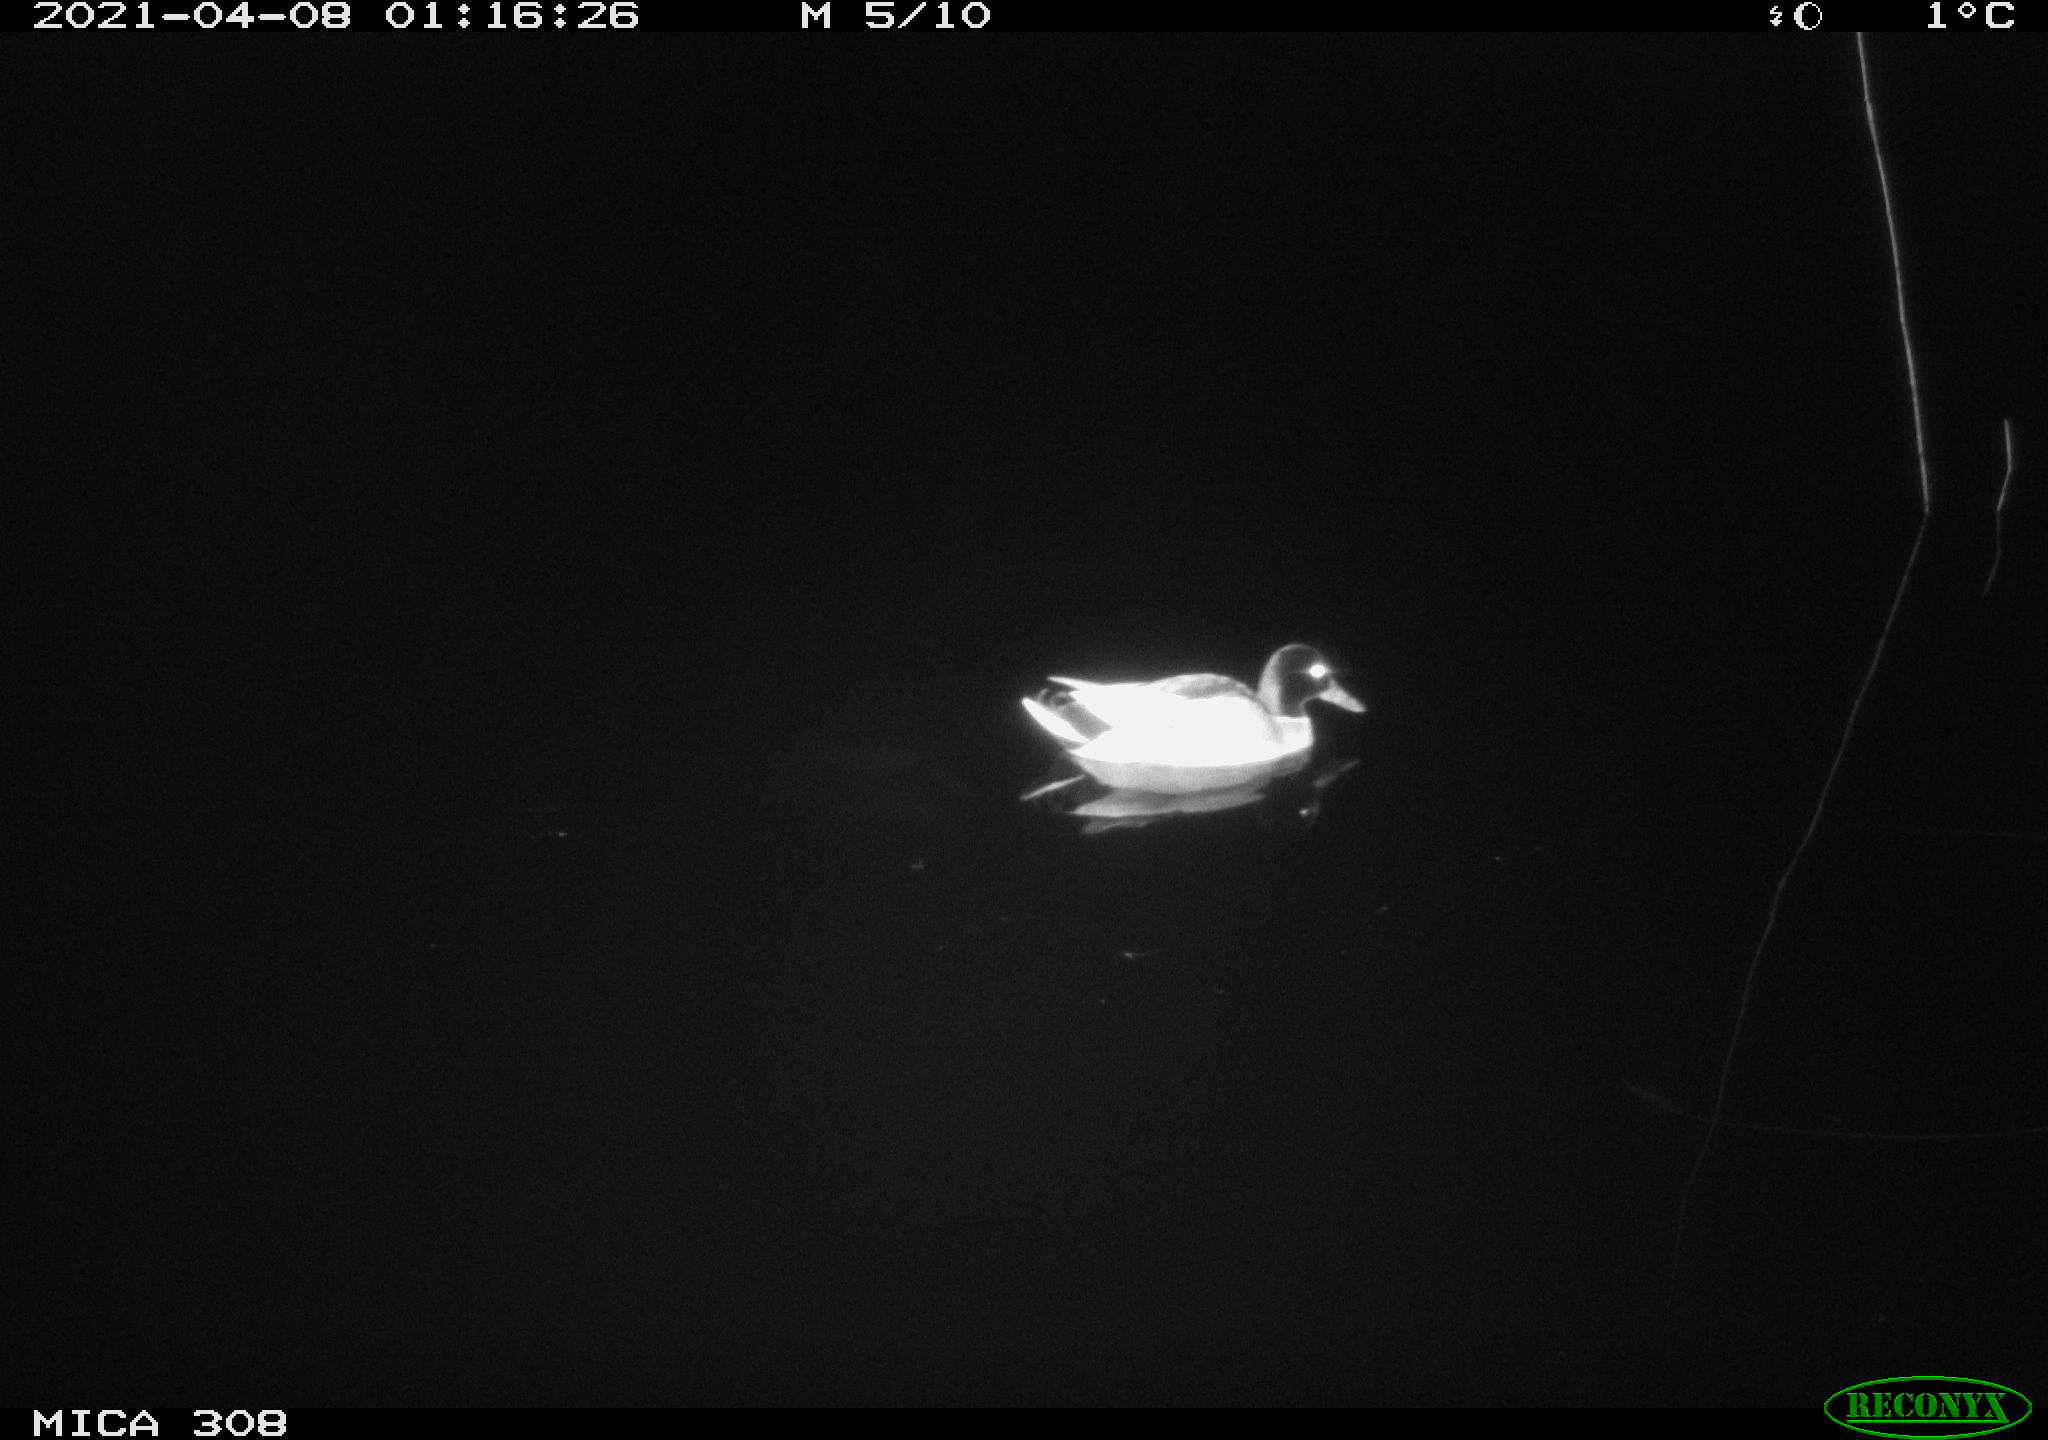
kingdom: Animalia
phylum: Chordata
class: Aves
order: Anseriformes
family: Anatidae
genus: Anas
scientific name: Anas platyrhynchos
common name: Mallard
